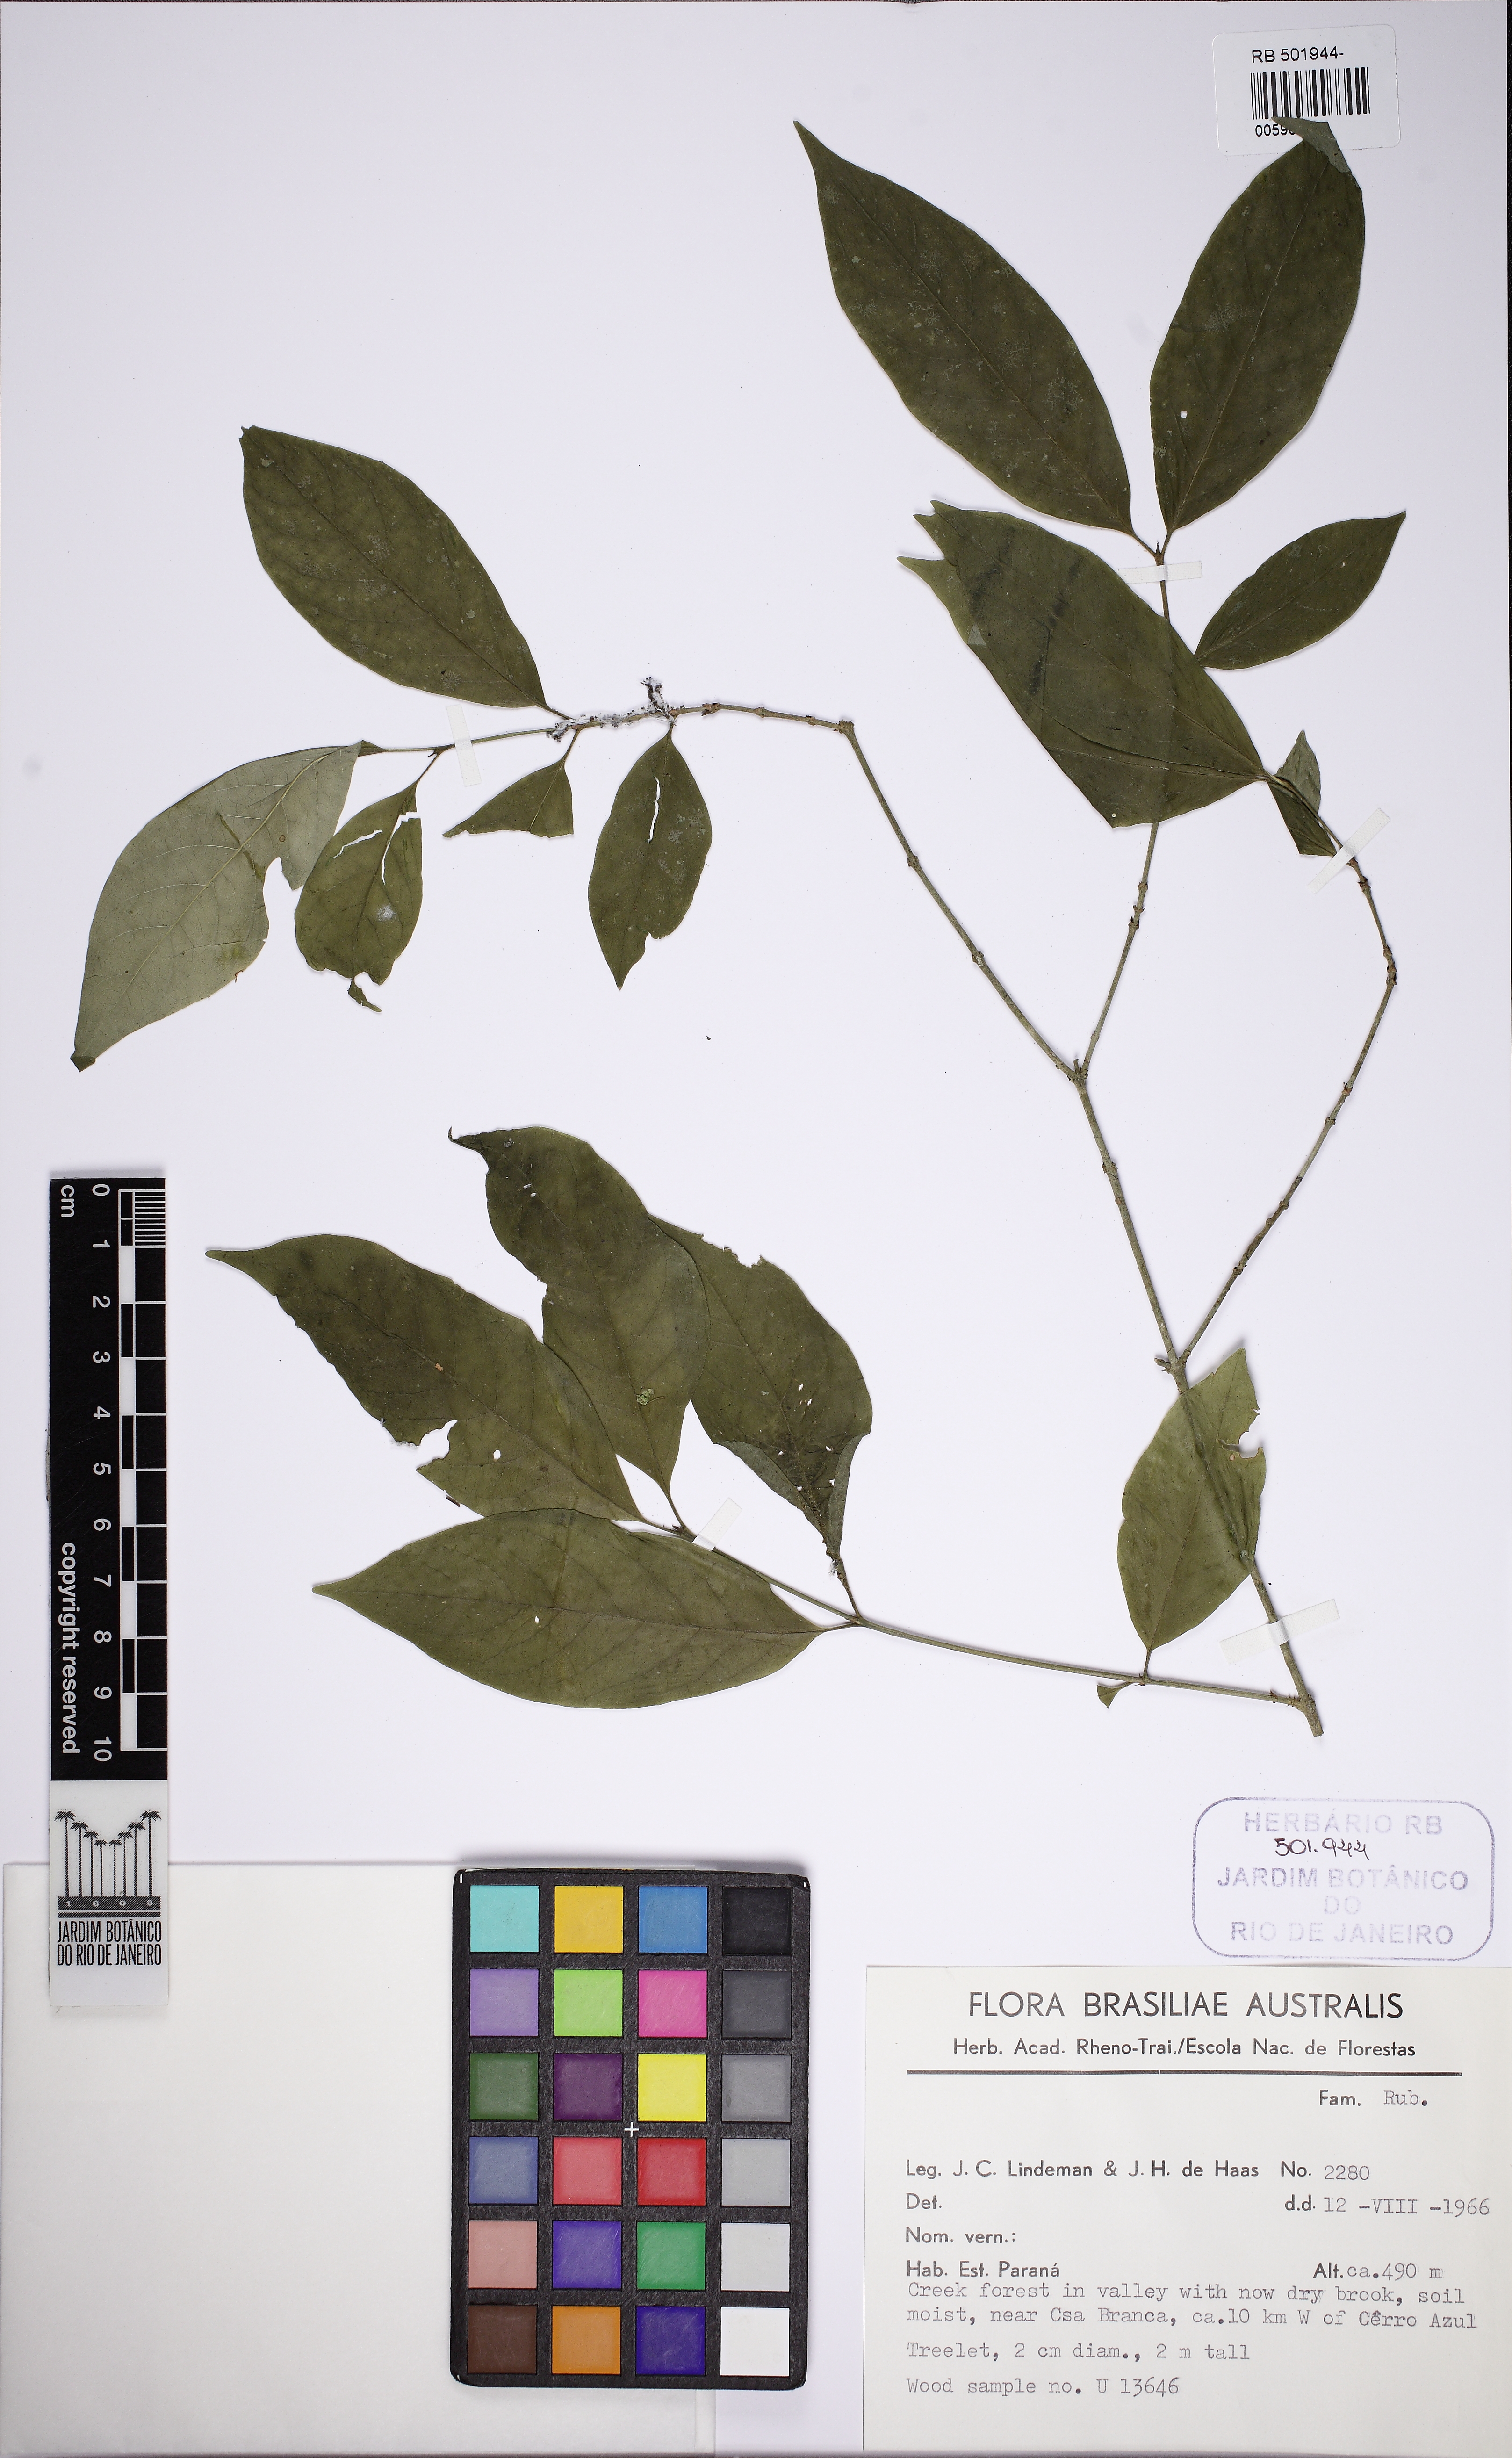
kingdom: Plantae
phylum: Tracheophyta
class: Magnoliopsida
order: Gentianales
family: Rubiaceae
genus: Faramea
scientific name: Faramea
